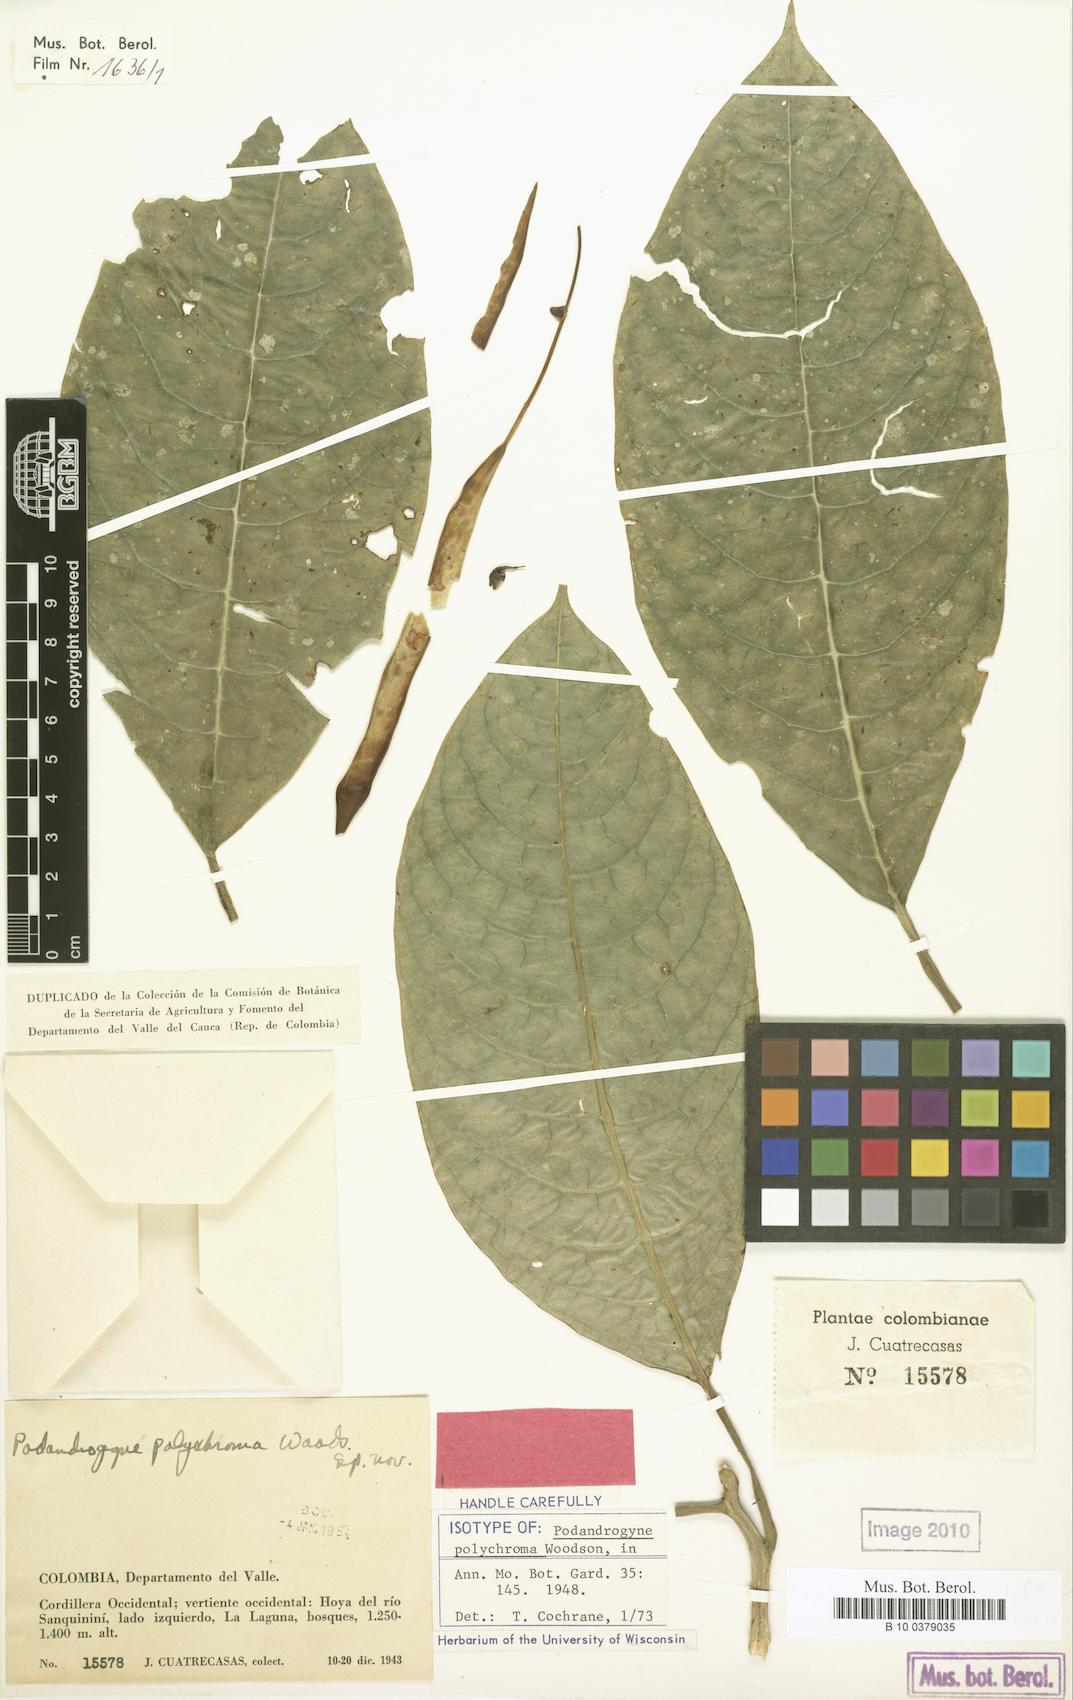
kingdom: Plantae
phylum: Tracheophyta
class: Magnoliopsida
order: Brassicales
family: Cleomaceae
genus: Podandrogyne
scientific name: Podandrogyne polychroma
